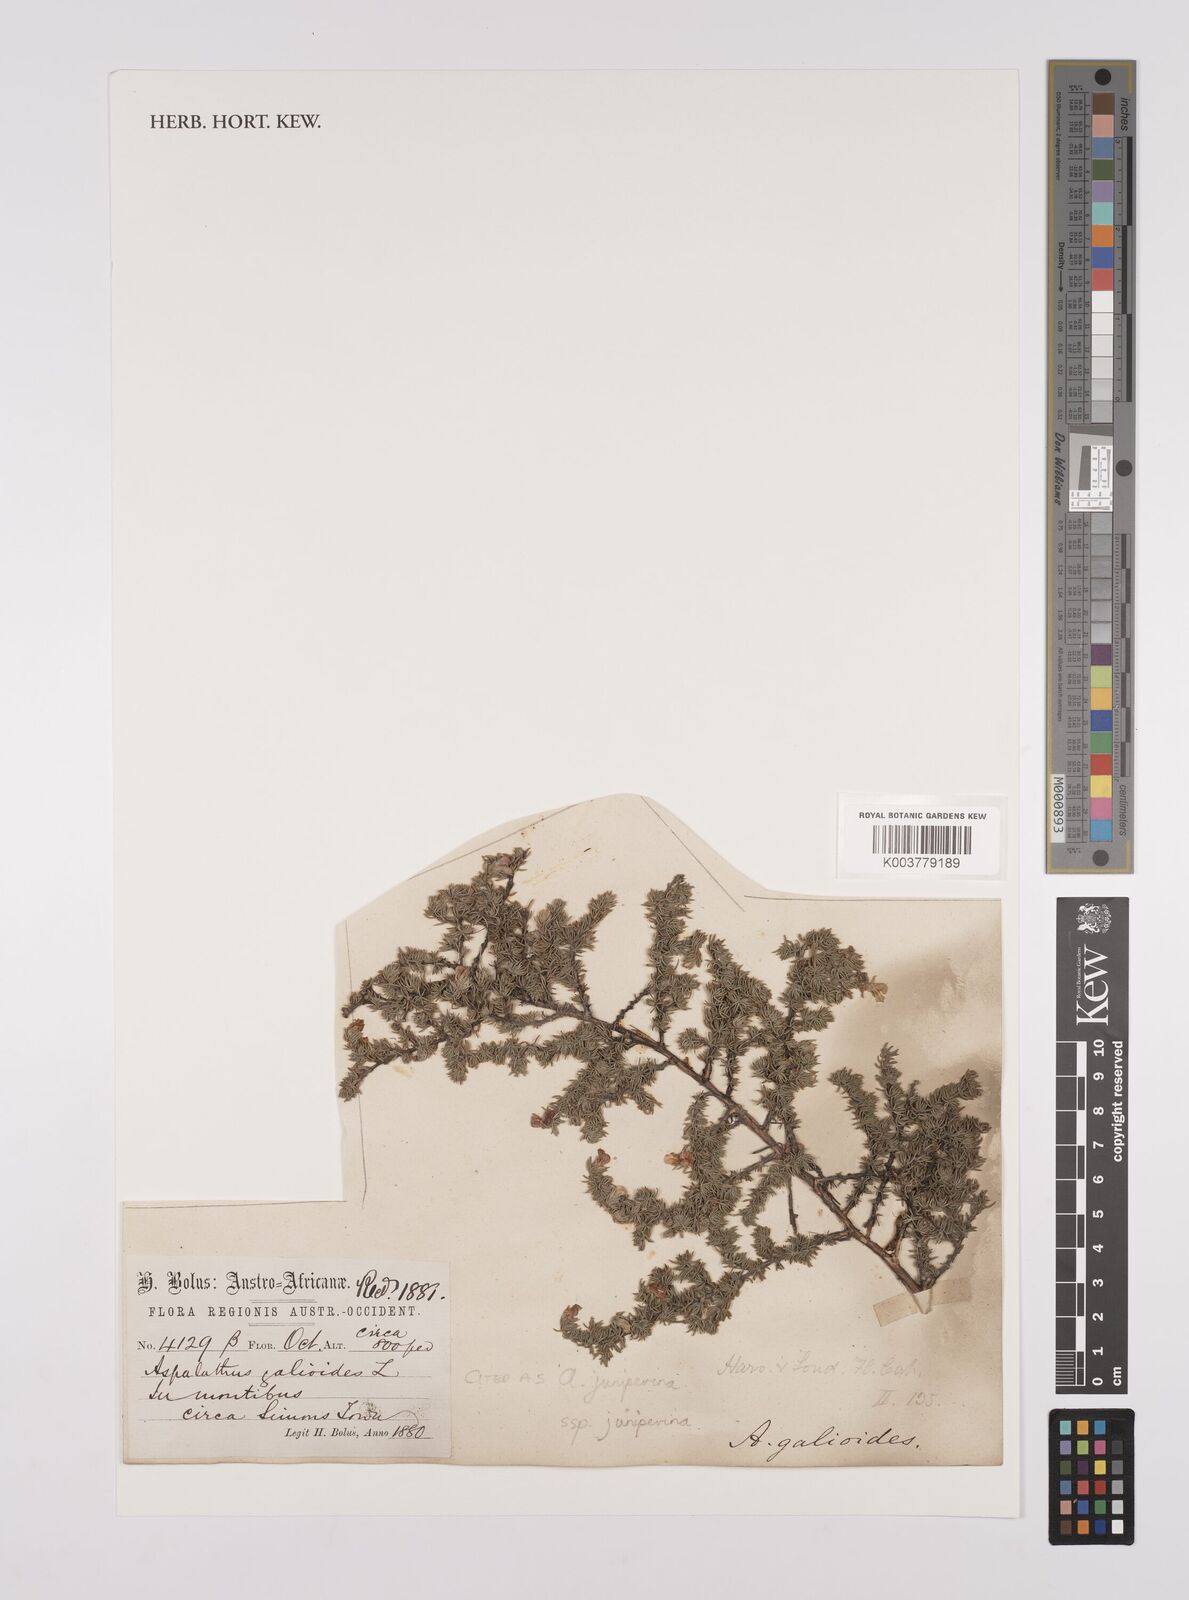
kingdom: Plantae
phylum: Tracheophyta
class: Magnoliopsida
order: Fabales
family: Fabaceae
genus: Aspalathus
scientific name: Aspalathus juniperina
